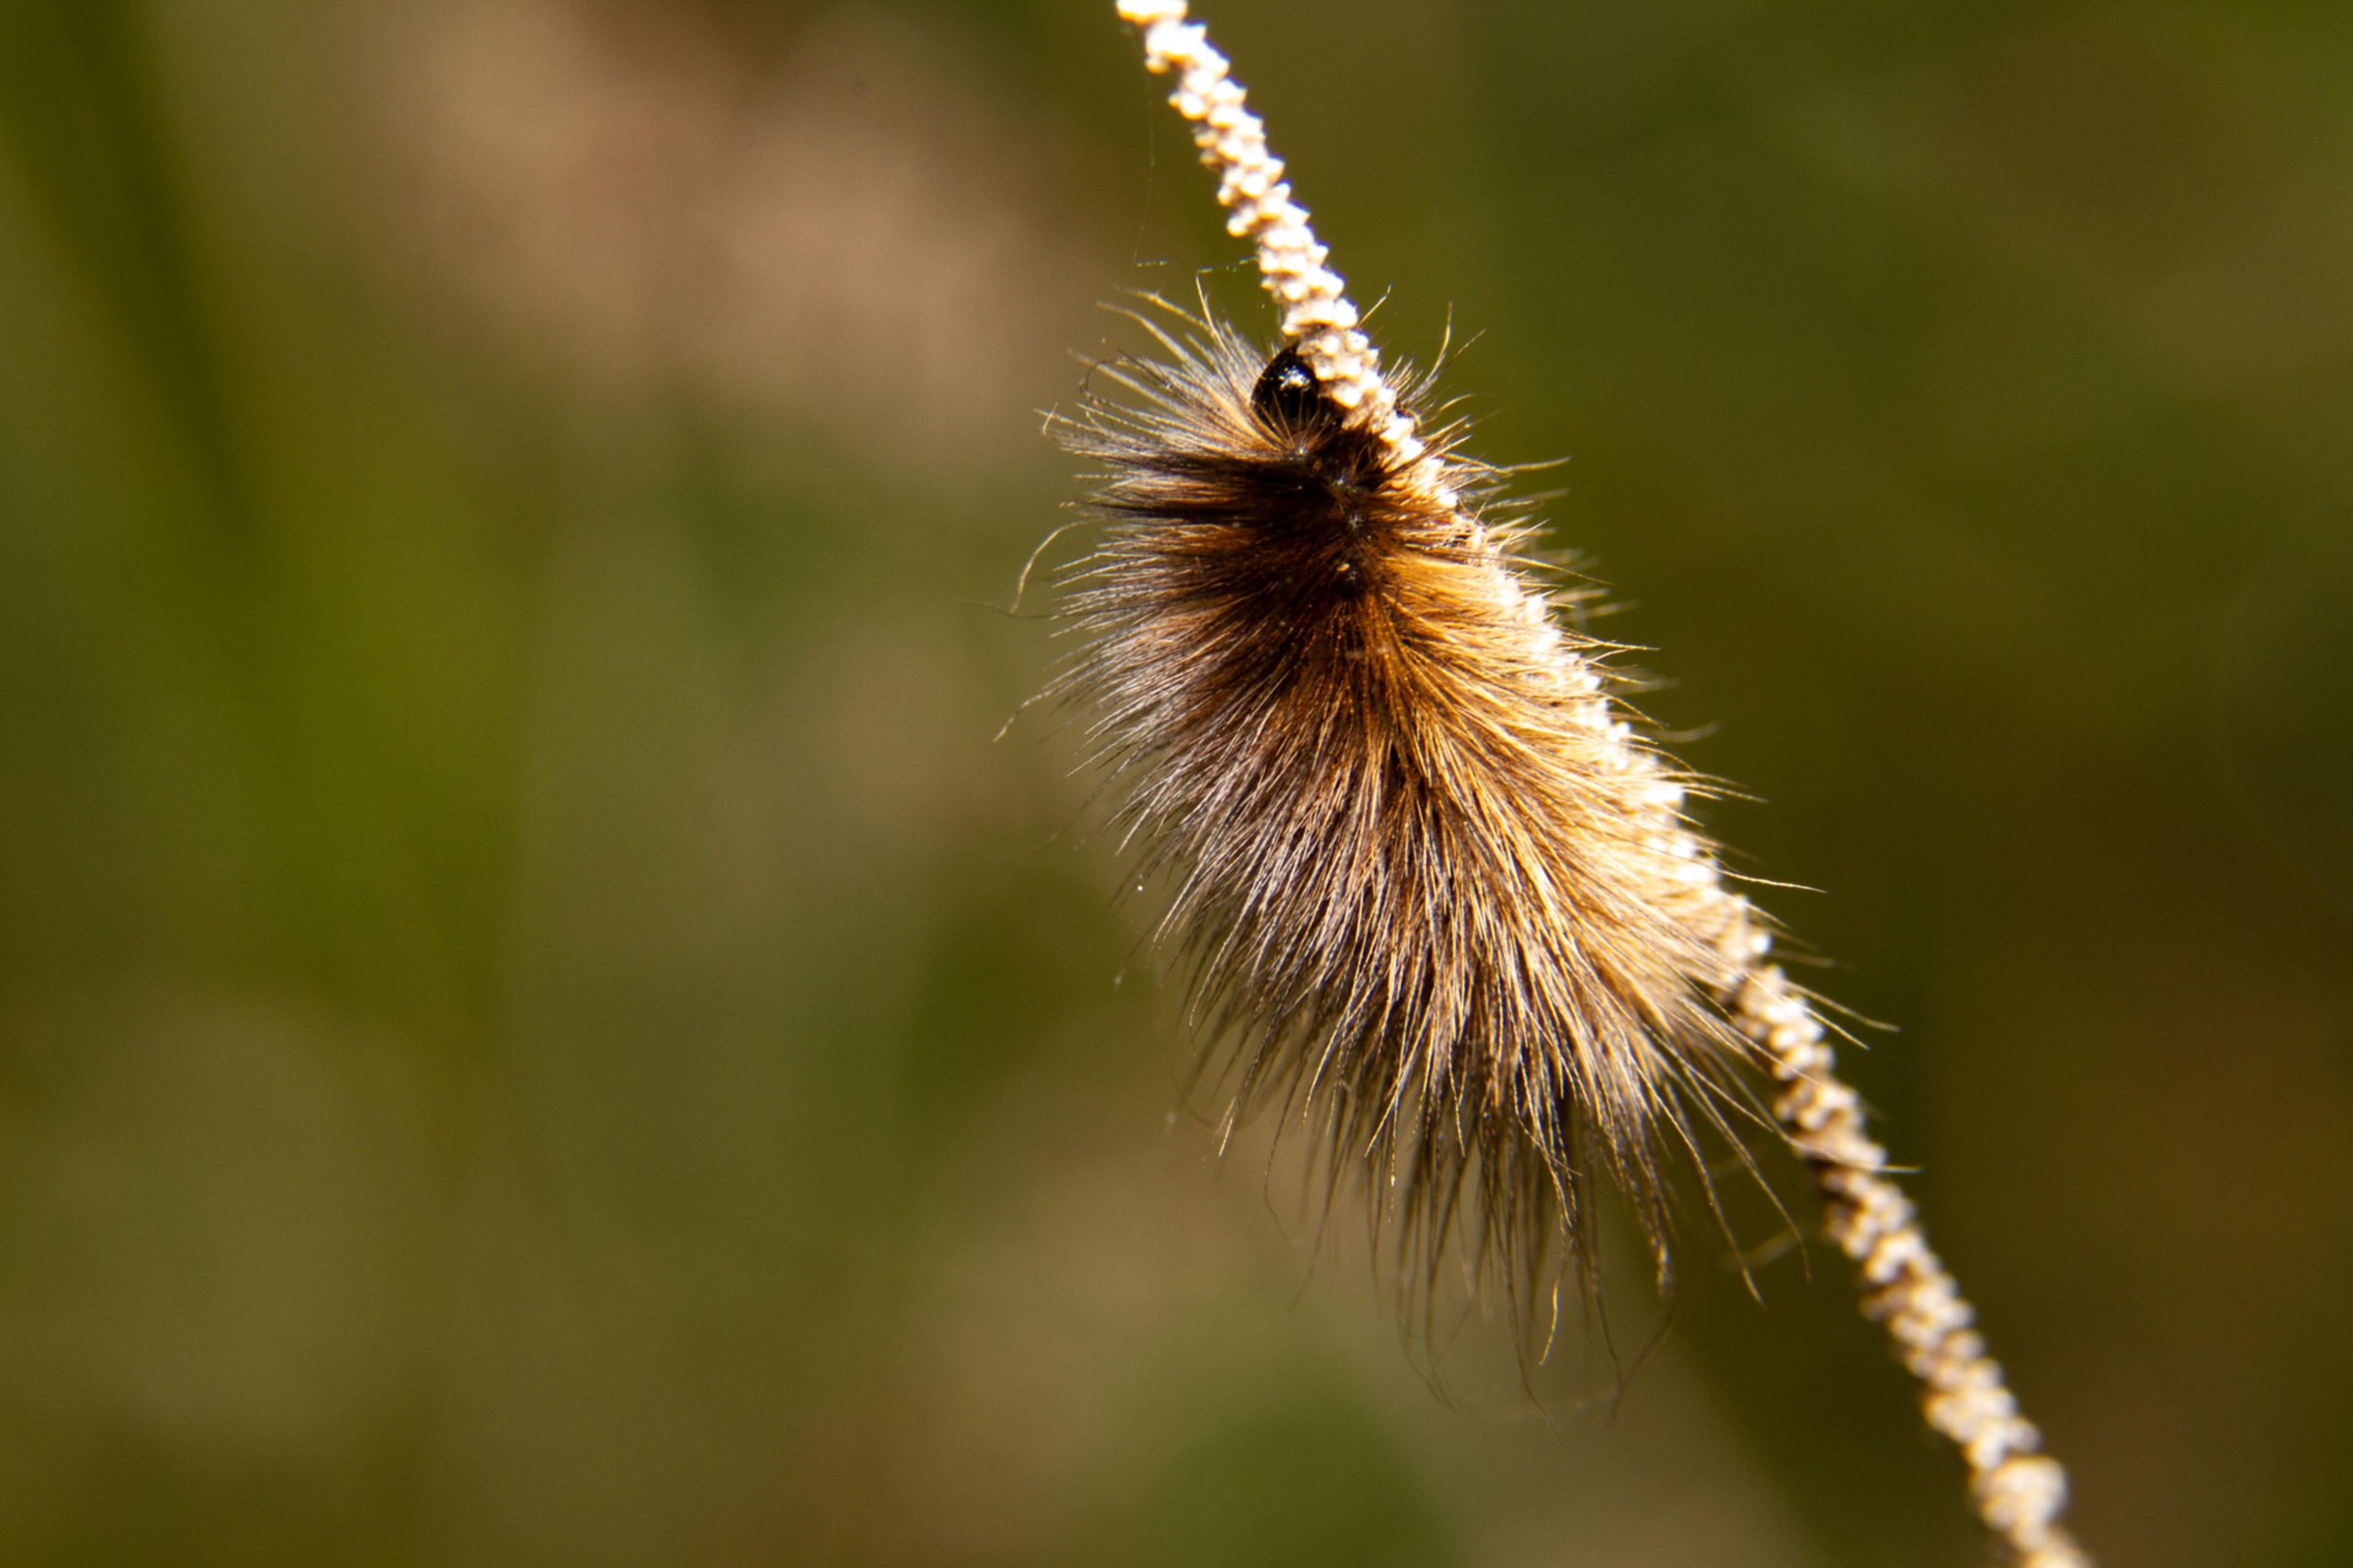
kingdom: Animalia
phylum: Arthropoda
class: Insecta
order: Lepidoptera
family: Erebidae
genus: Phragmatobia
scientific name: Phragmatobia fuliginosa
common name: Kanelbjørn
